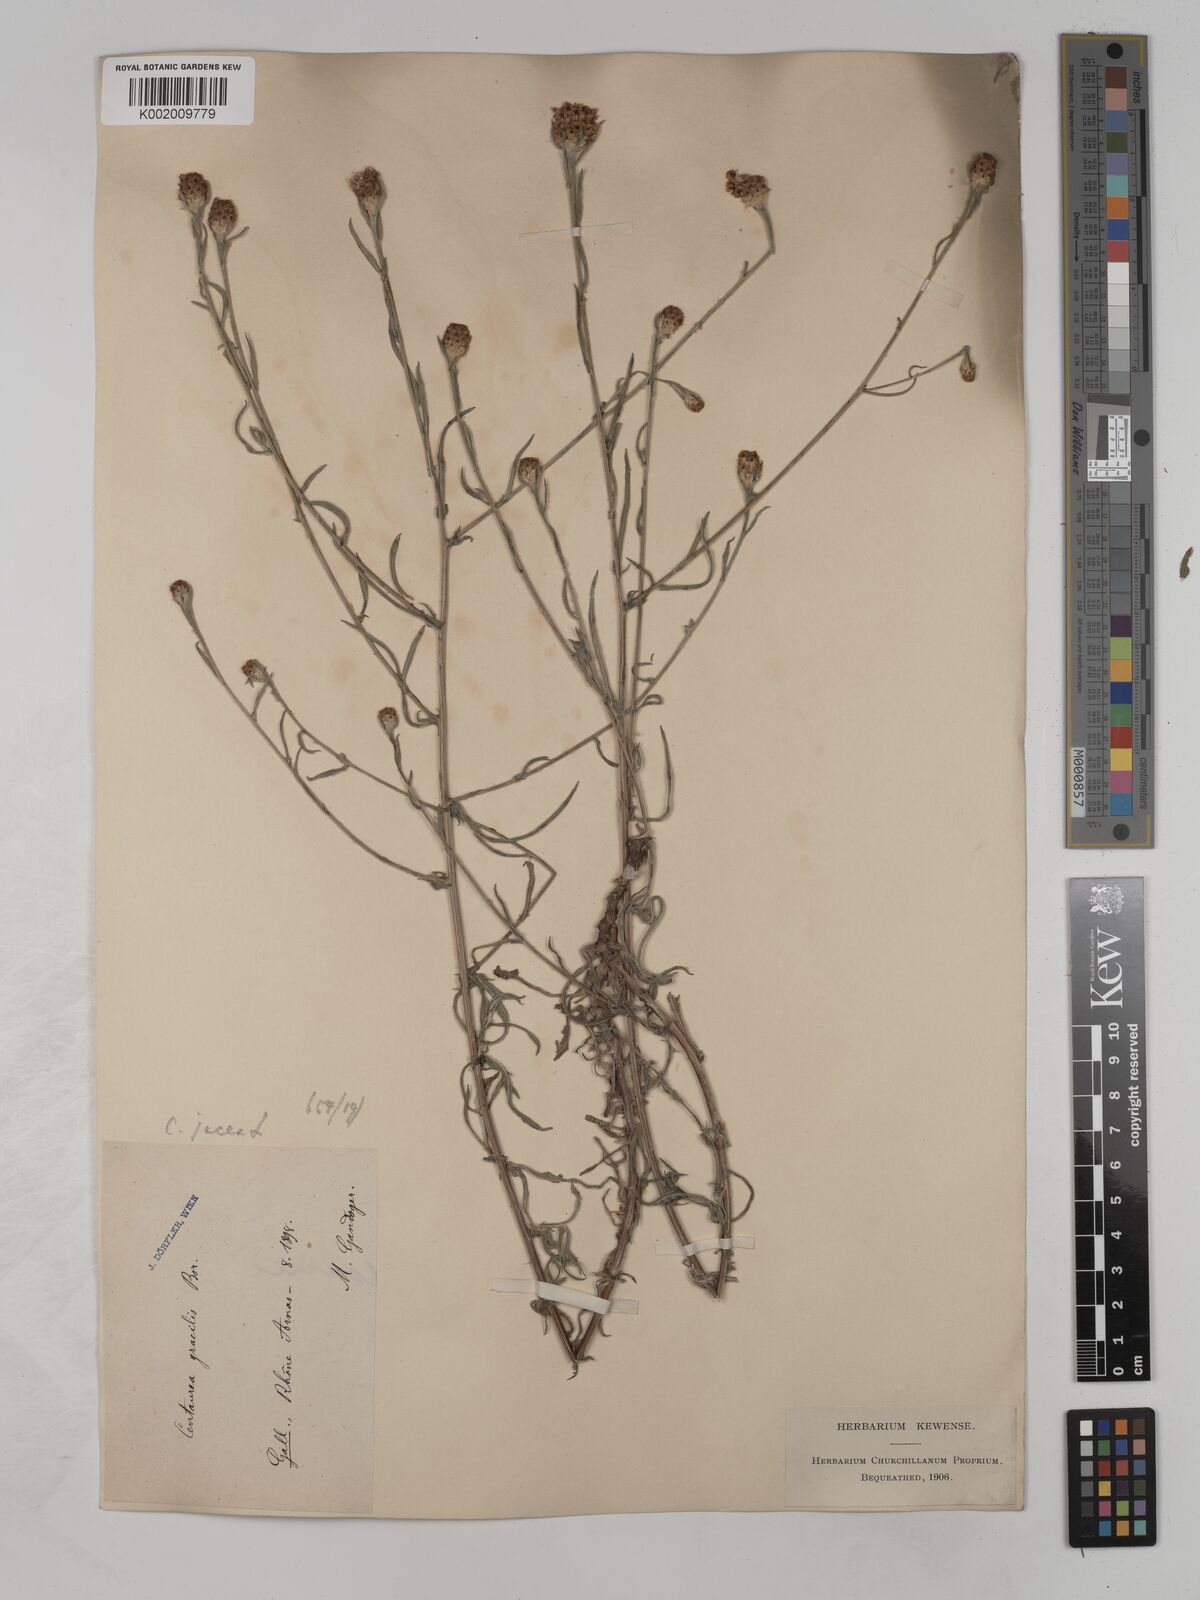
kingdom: Plantae
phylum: Tracheophyta
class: Magnoliopsida
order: Asterales
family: Asteraceae
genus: Centaurea
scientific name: Centaurea timbalii
